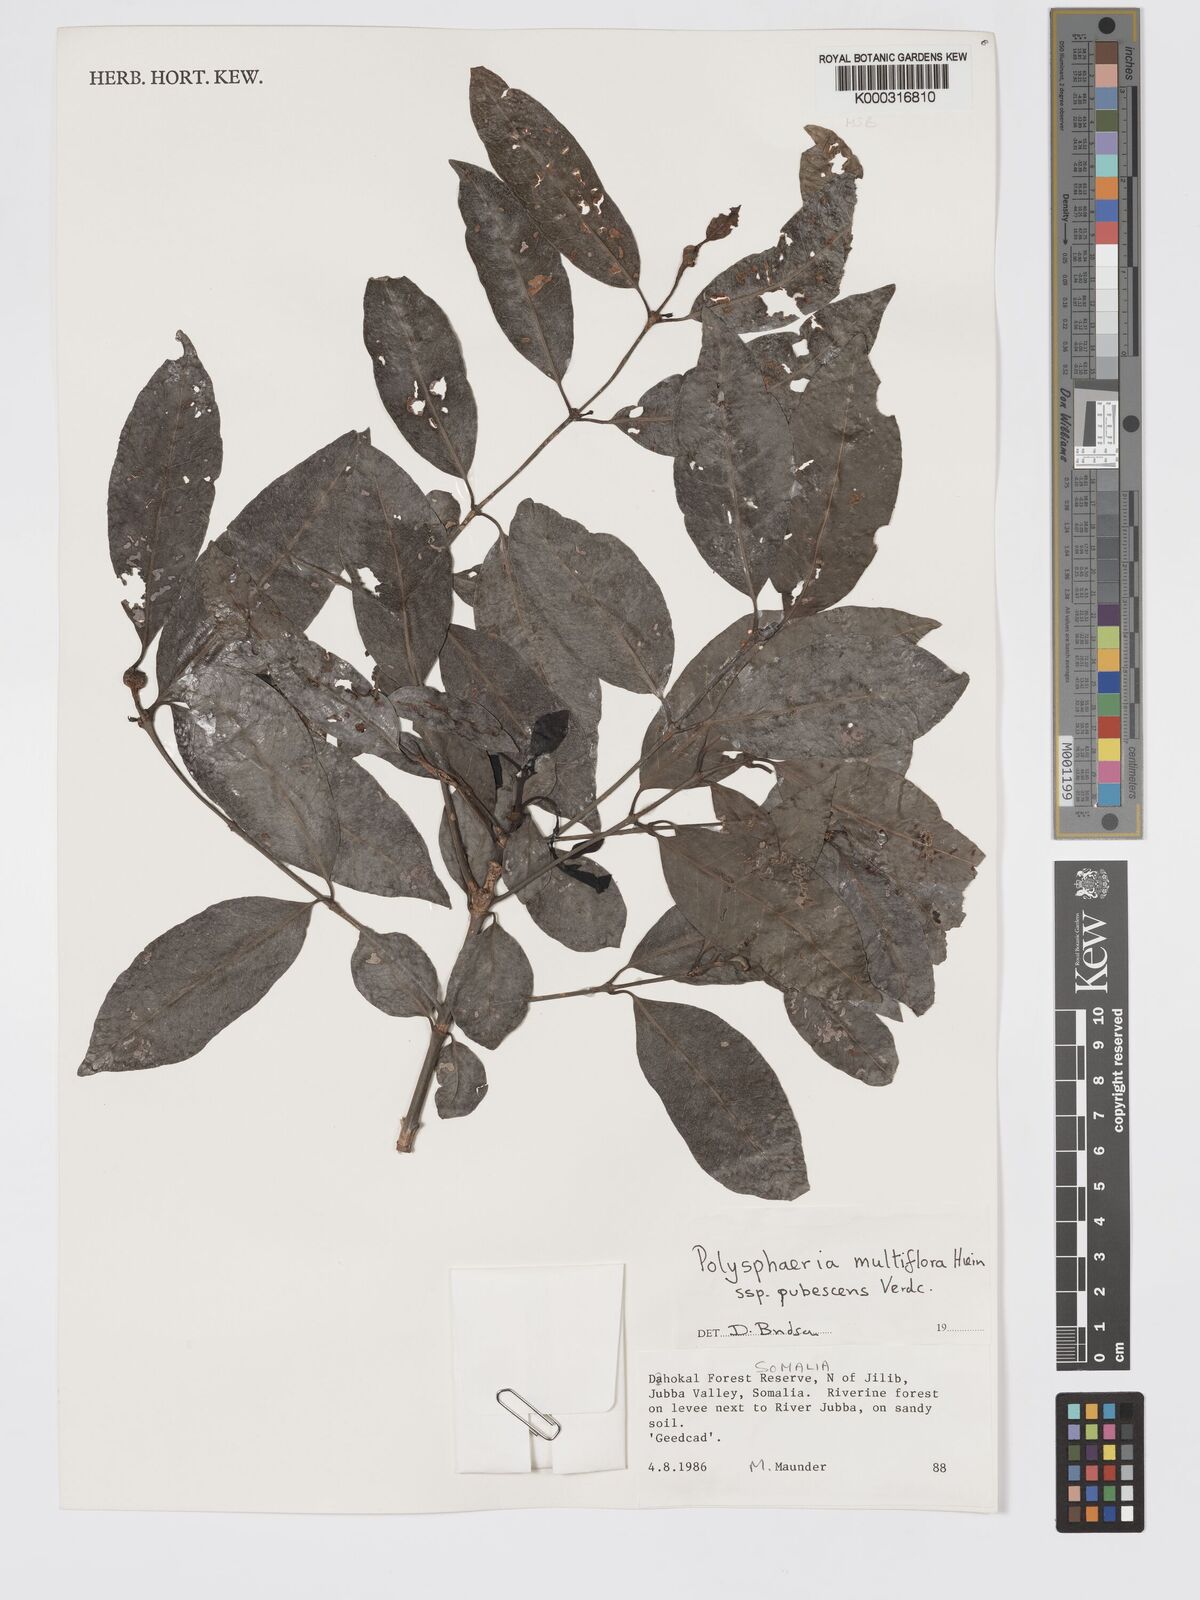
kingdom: Plantae
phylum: Tracheophyta
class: Magnoliopsida
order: Gentianales
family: Rubiaceae
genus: Polysphaeria
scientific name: Polysphaeria multiflora
